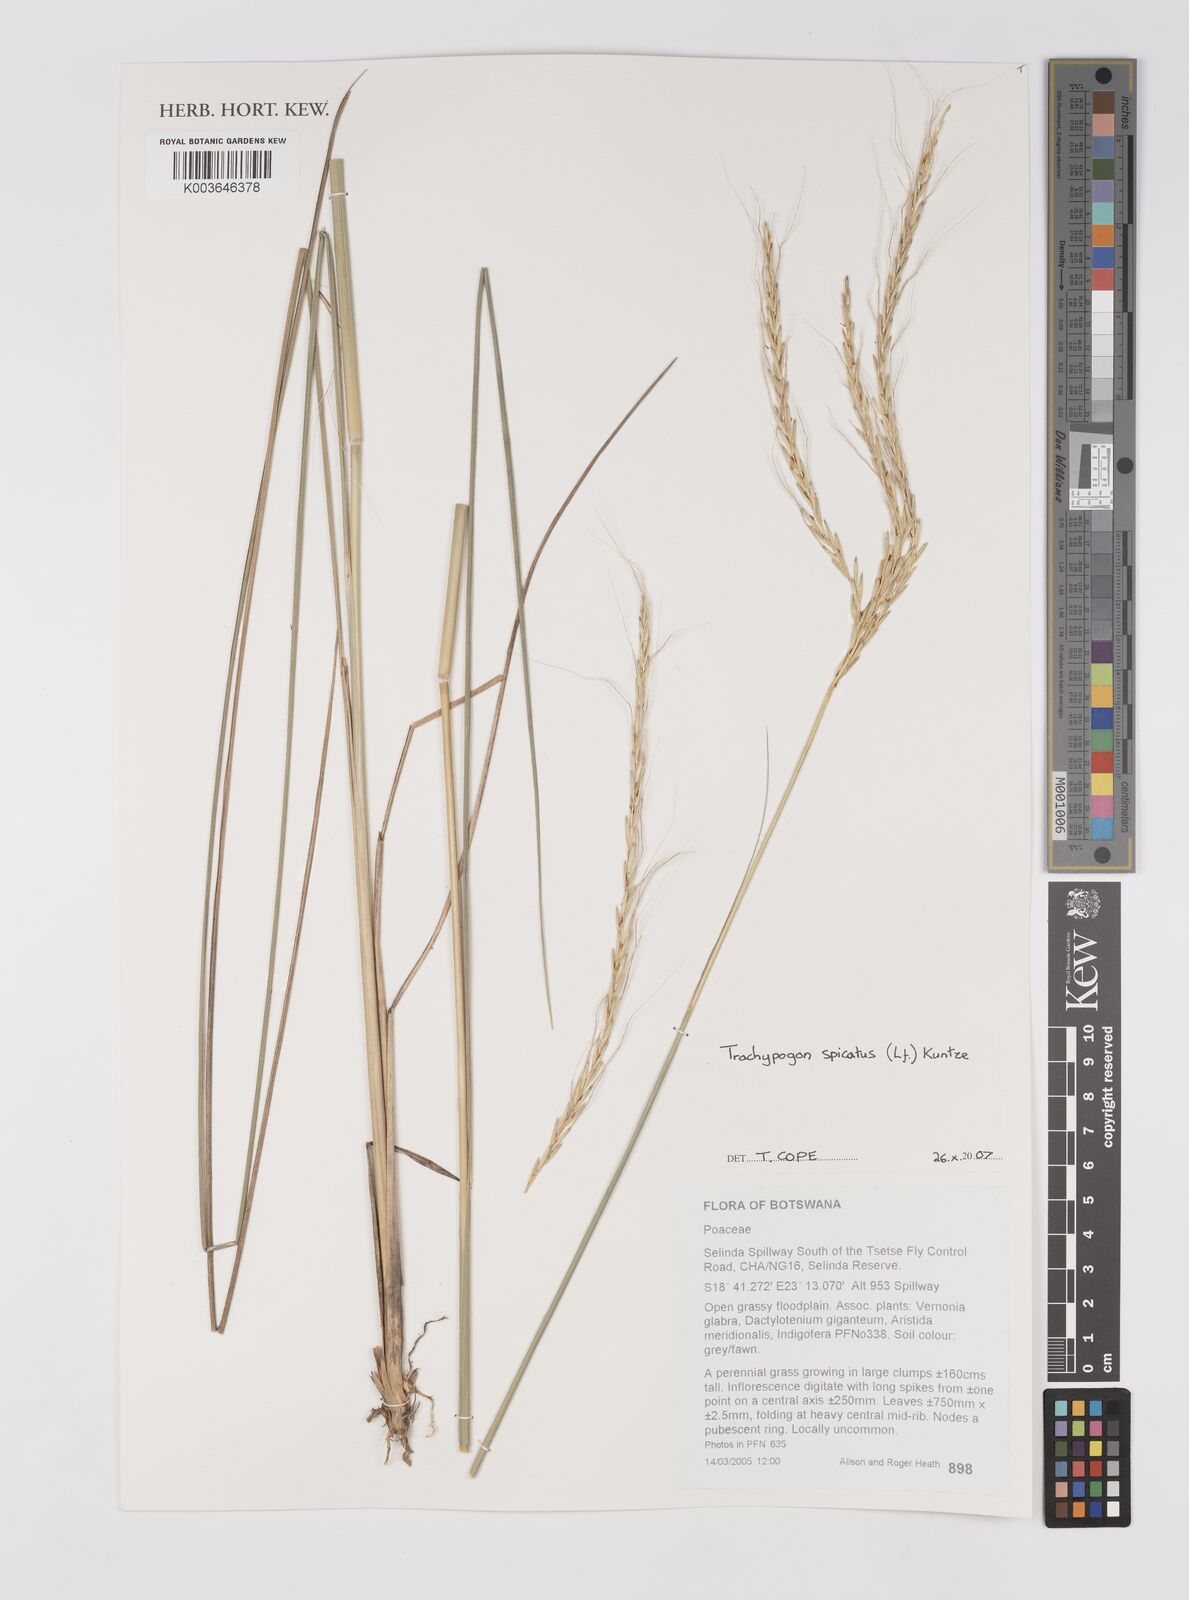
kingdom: Plantae
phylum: Tracheophyta
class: Liliopsida
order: Poales
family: Poaceae
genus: Trachypogon
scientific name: Trachypogon spicatus
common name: Crinkle-awn
